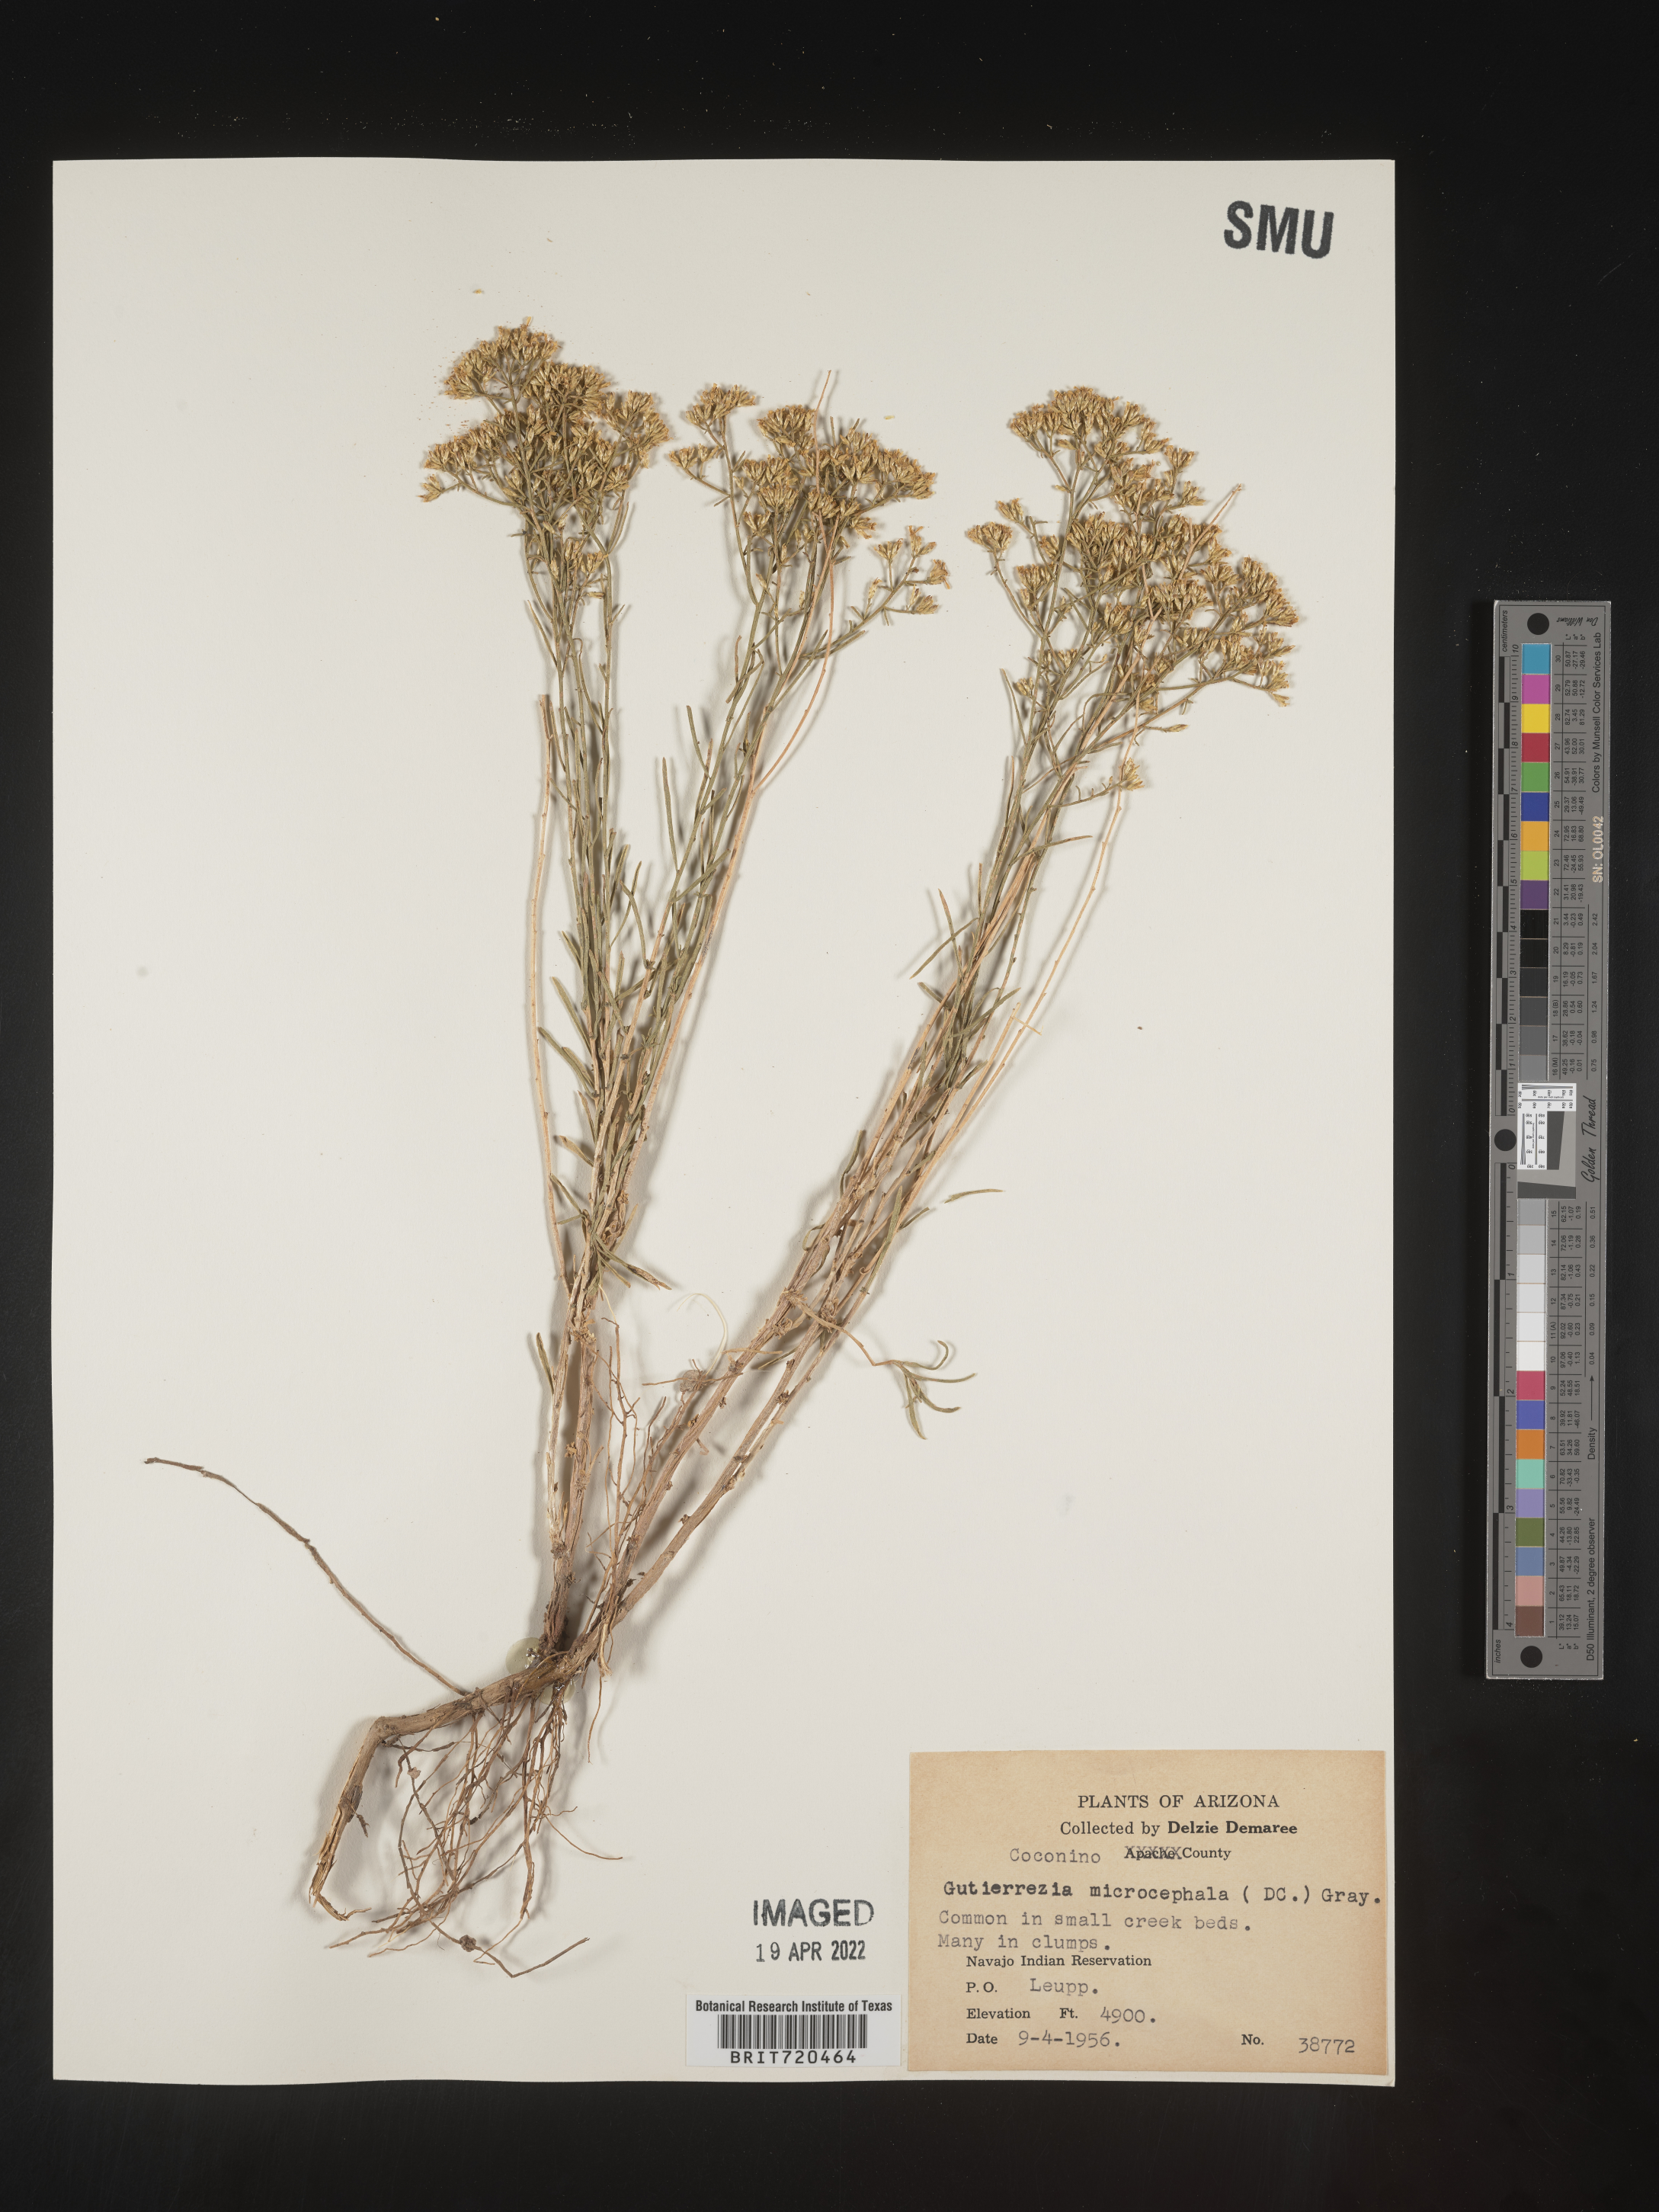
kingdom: Plantae
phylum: Tracheophyta
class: Magnoliopsida
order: Asterales
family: Asteraceae
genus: Gutierrezia
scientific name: Gutierrezia microcephala
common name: Thread snakeweed
